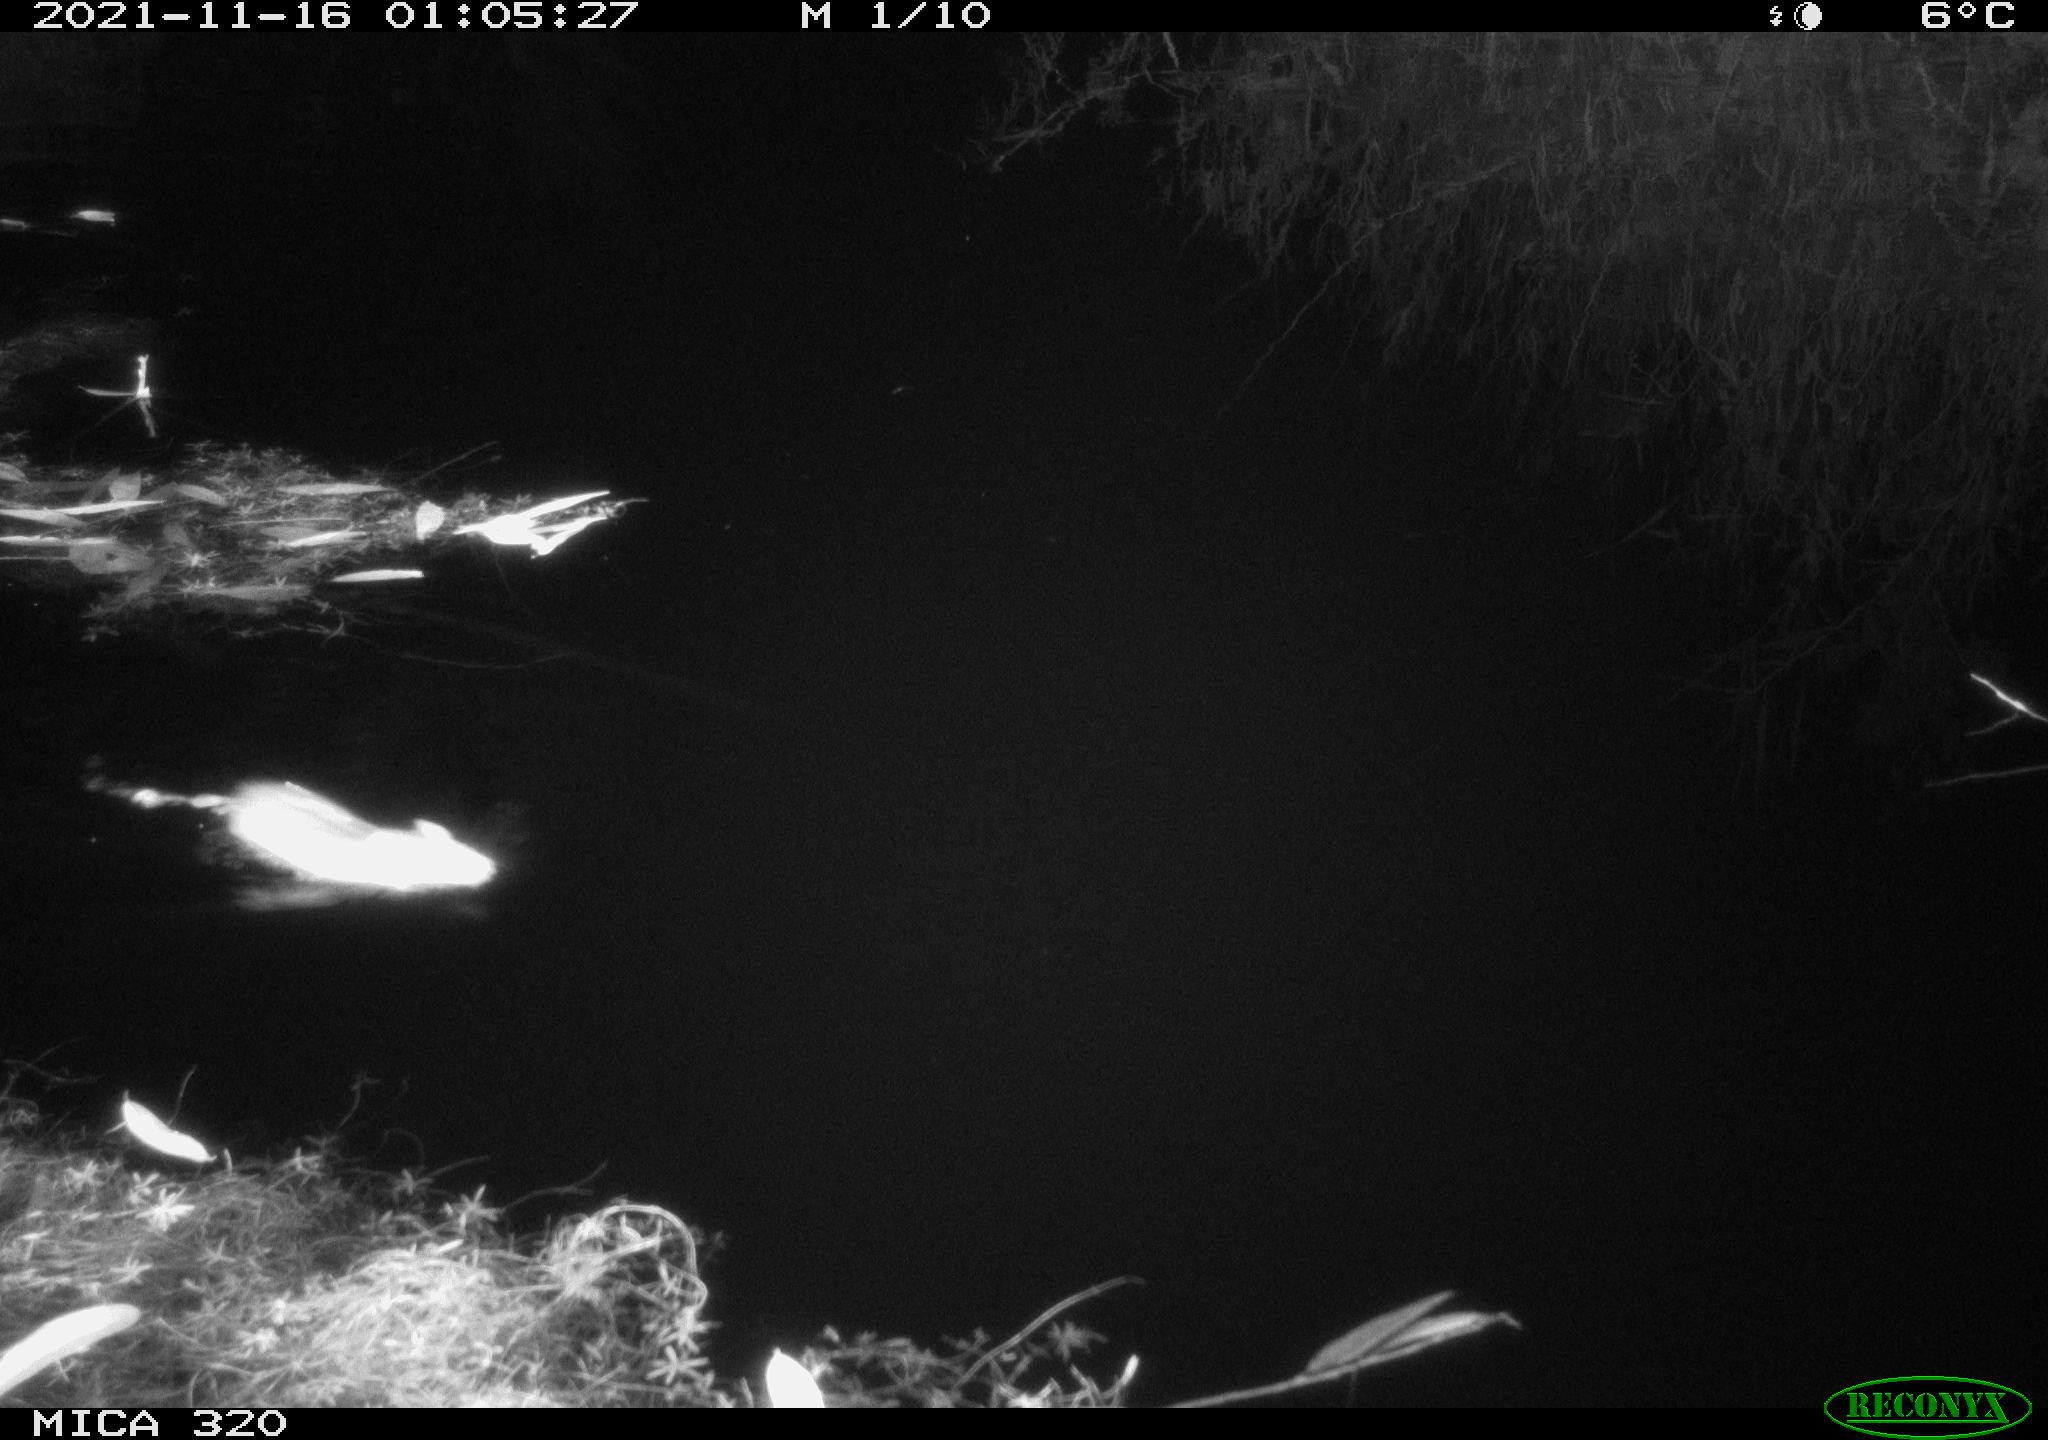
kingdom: Animalia
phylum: Chordata
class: Mammalia
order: Rodentia
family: Muridae
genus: Rattus
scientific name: Rattus norvegicus
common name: Brown rat
